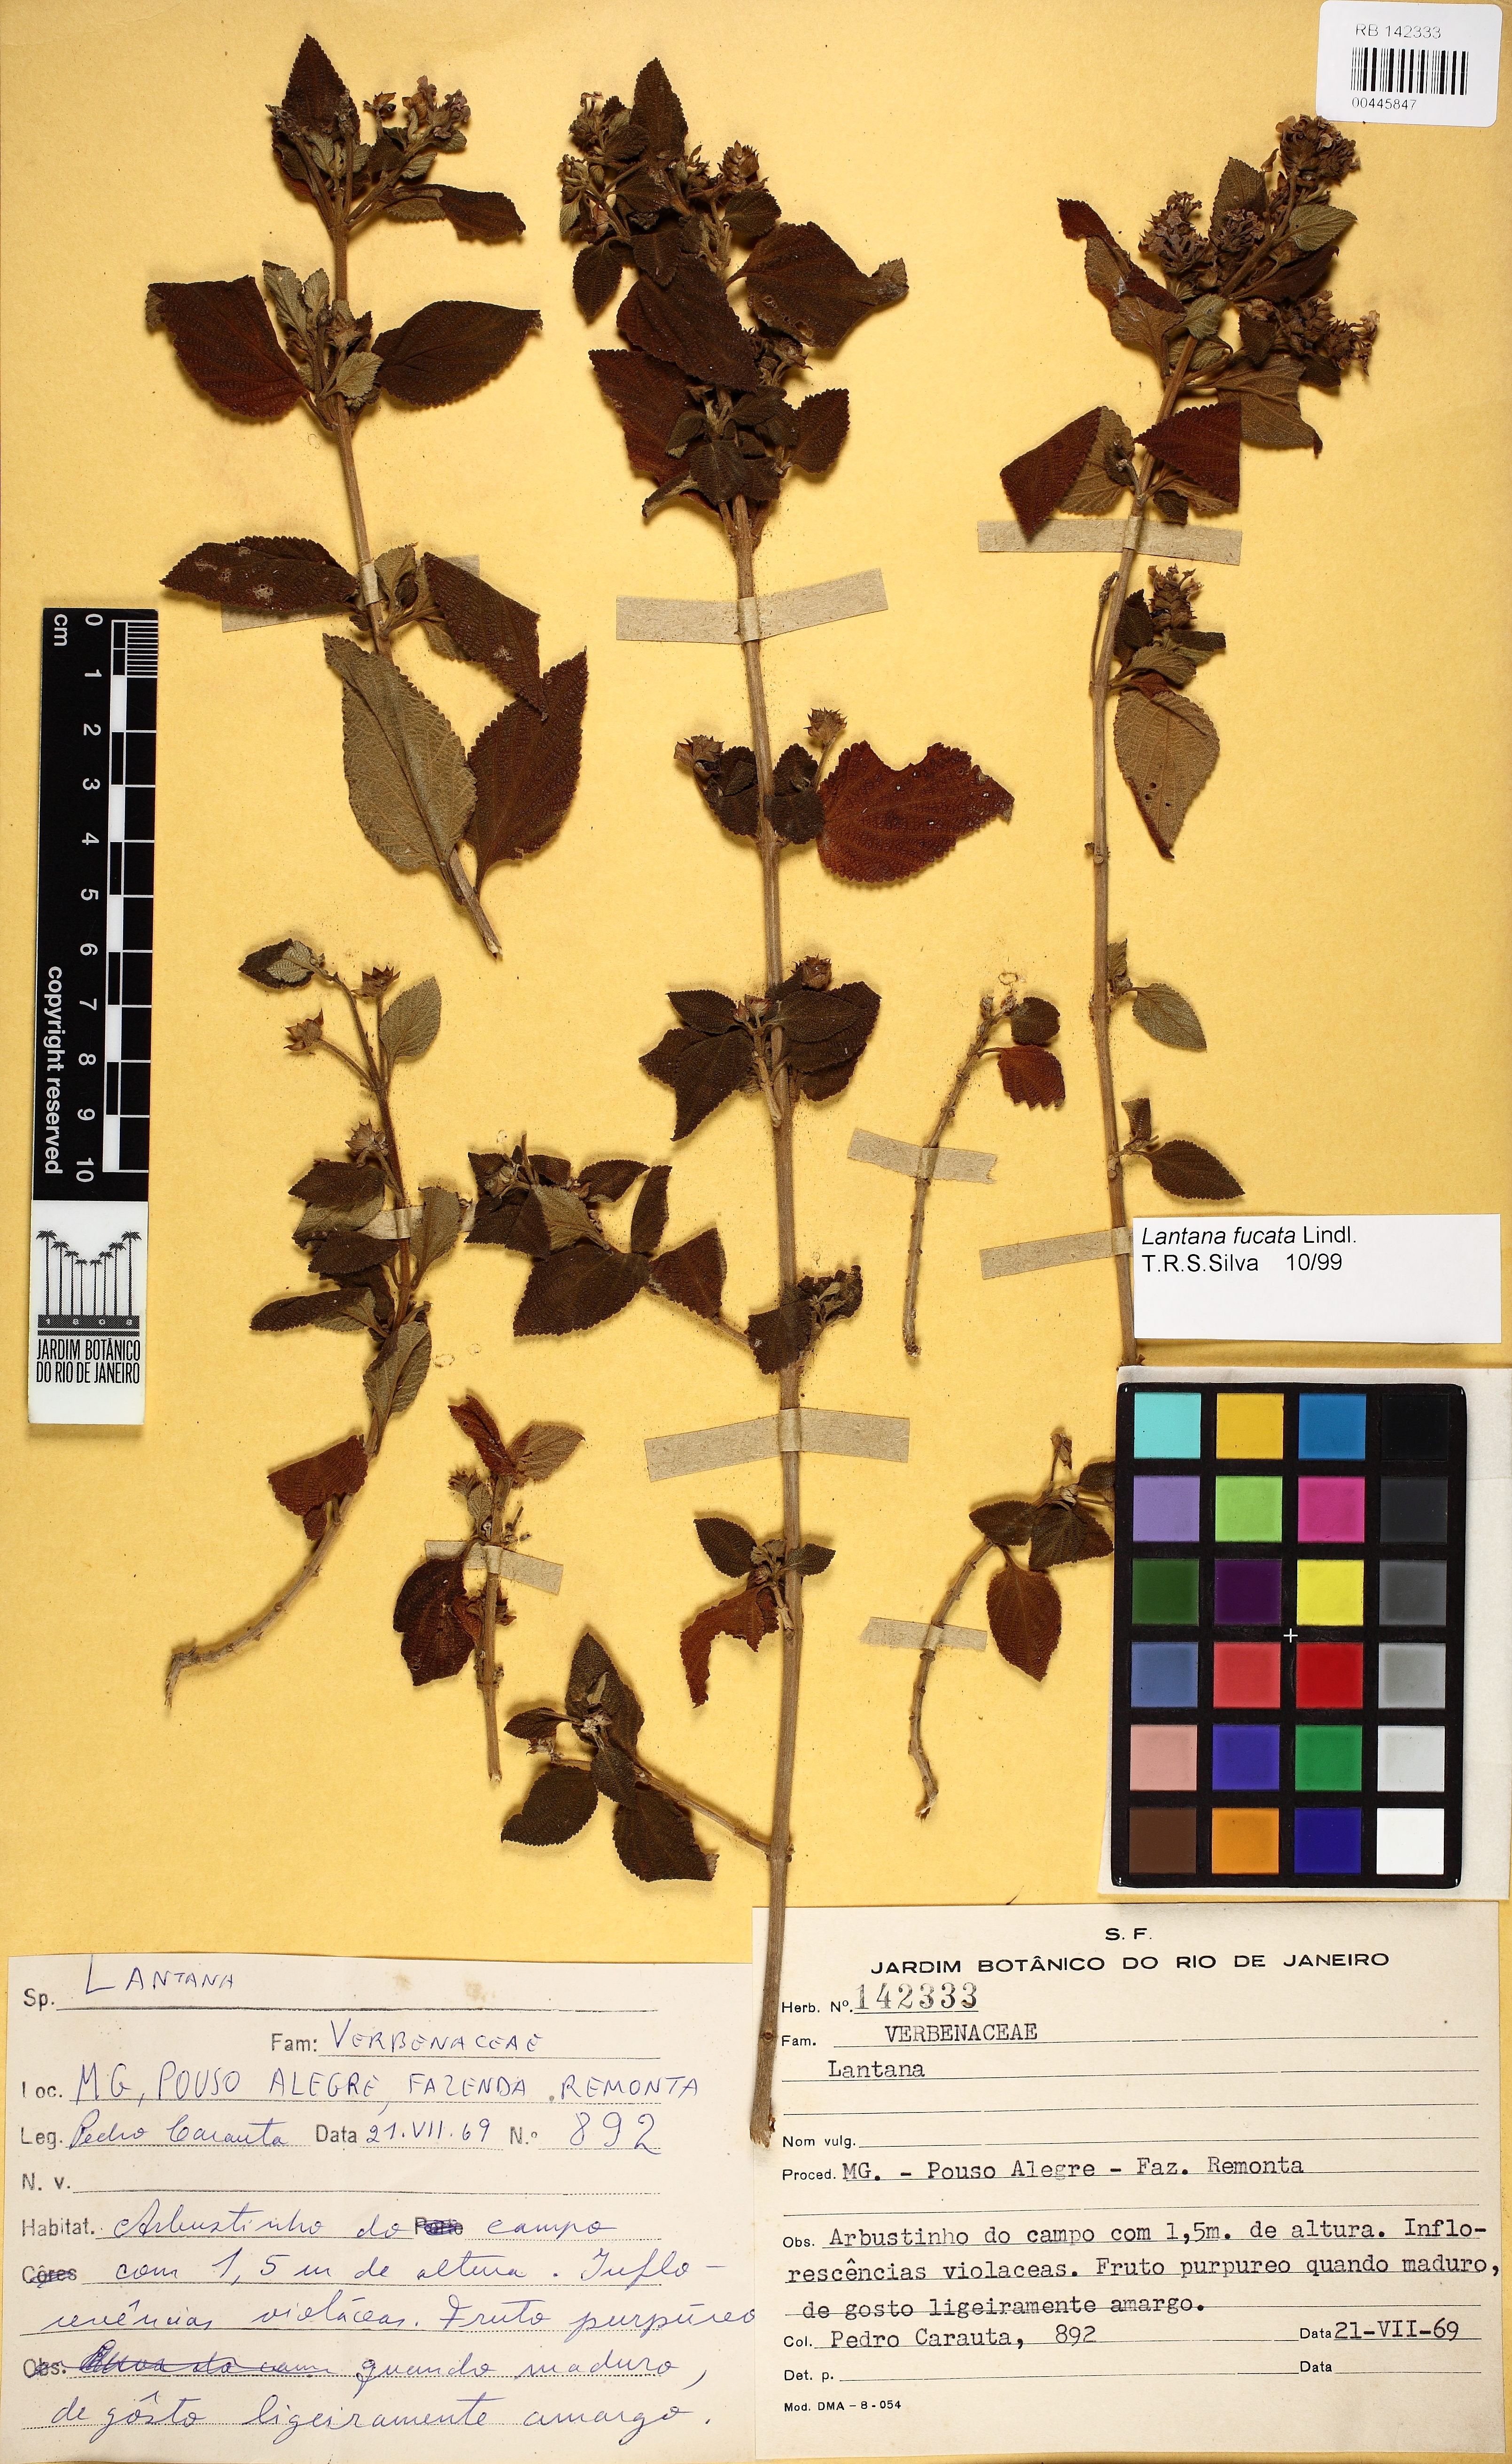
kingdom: Plantae
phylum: Tracheophyta
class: Magnoliopsida
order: Lamiales
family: Verbenaceae
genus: Lantana
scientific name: Lantana fucata
